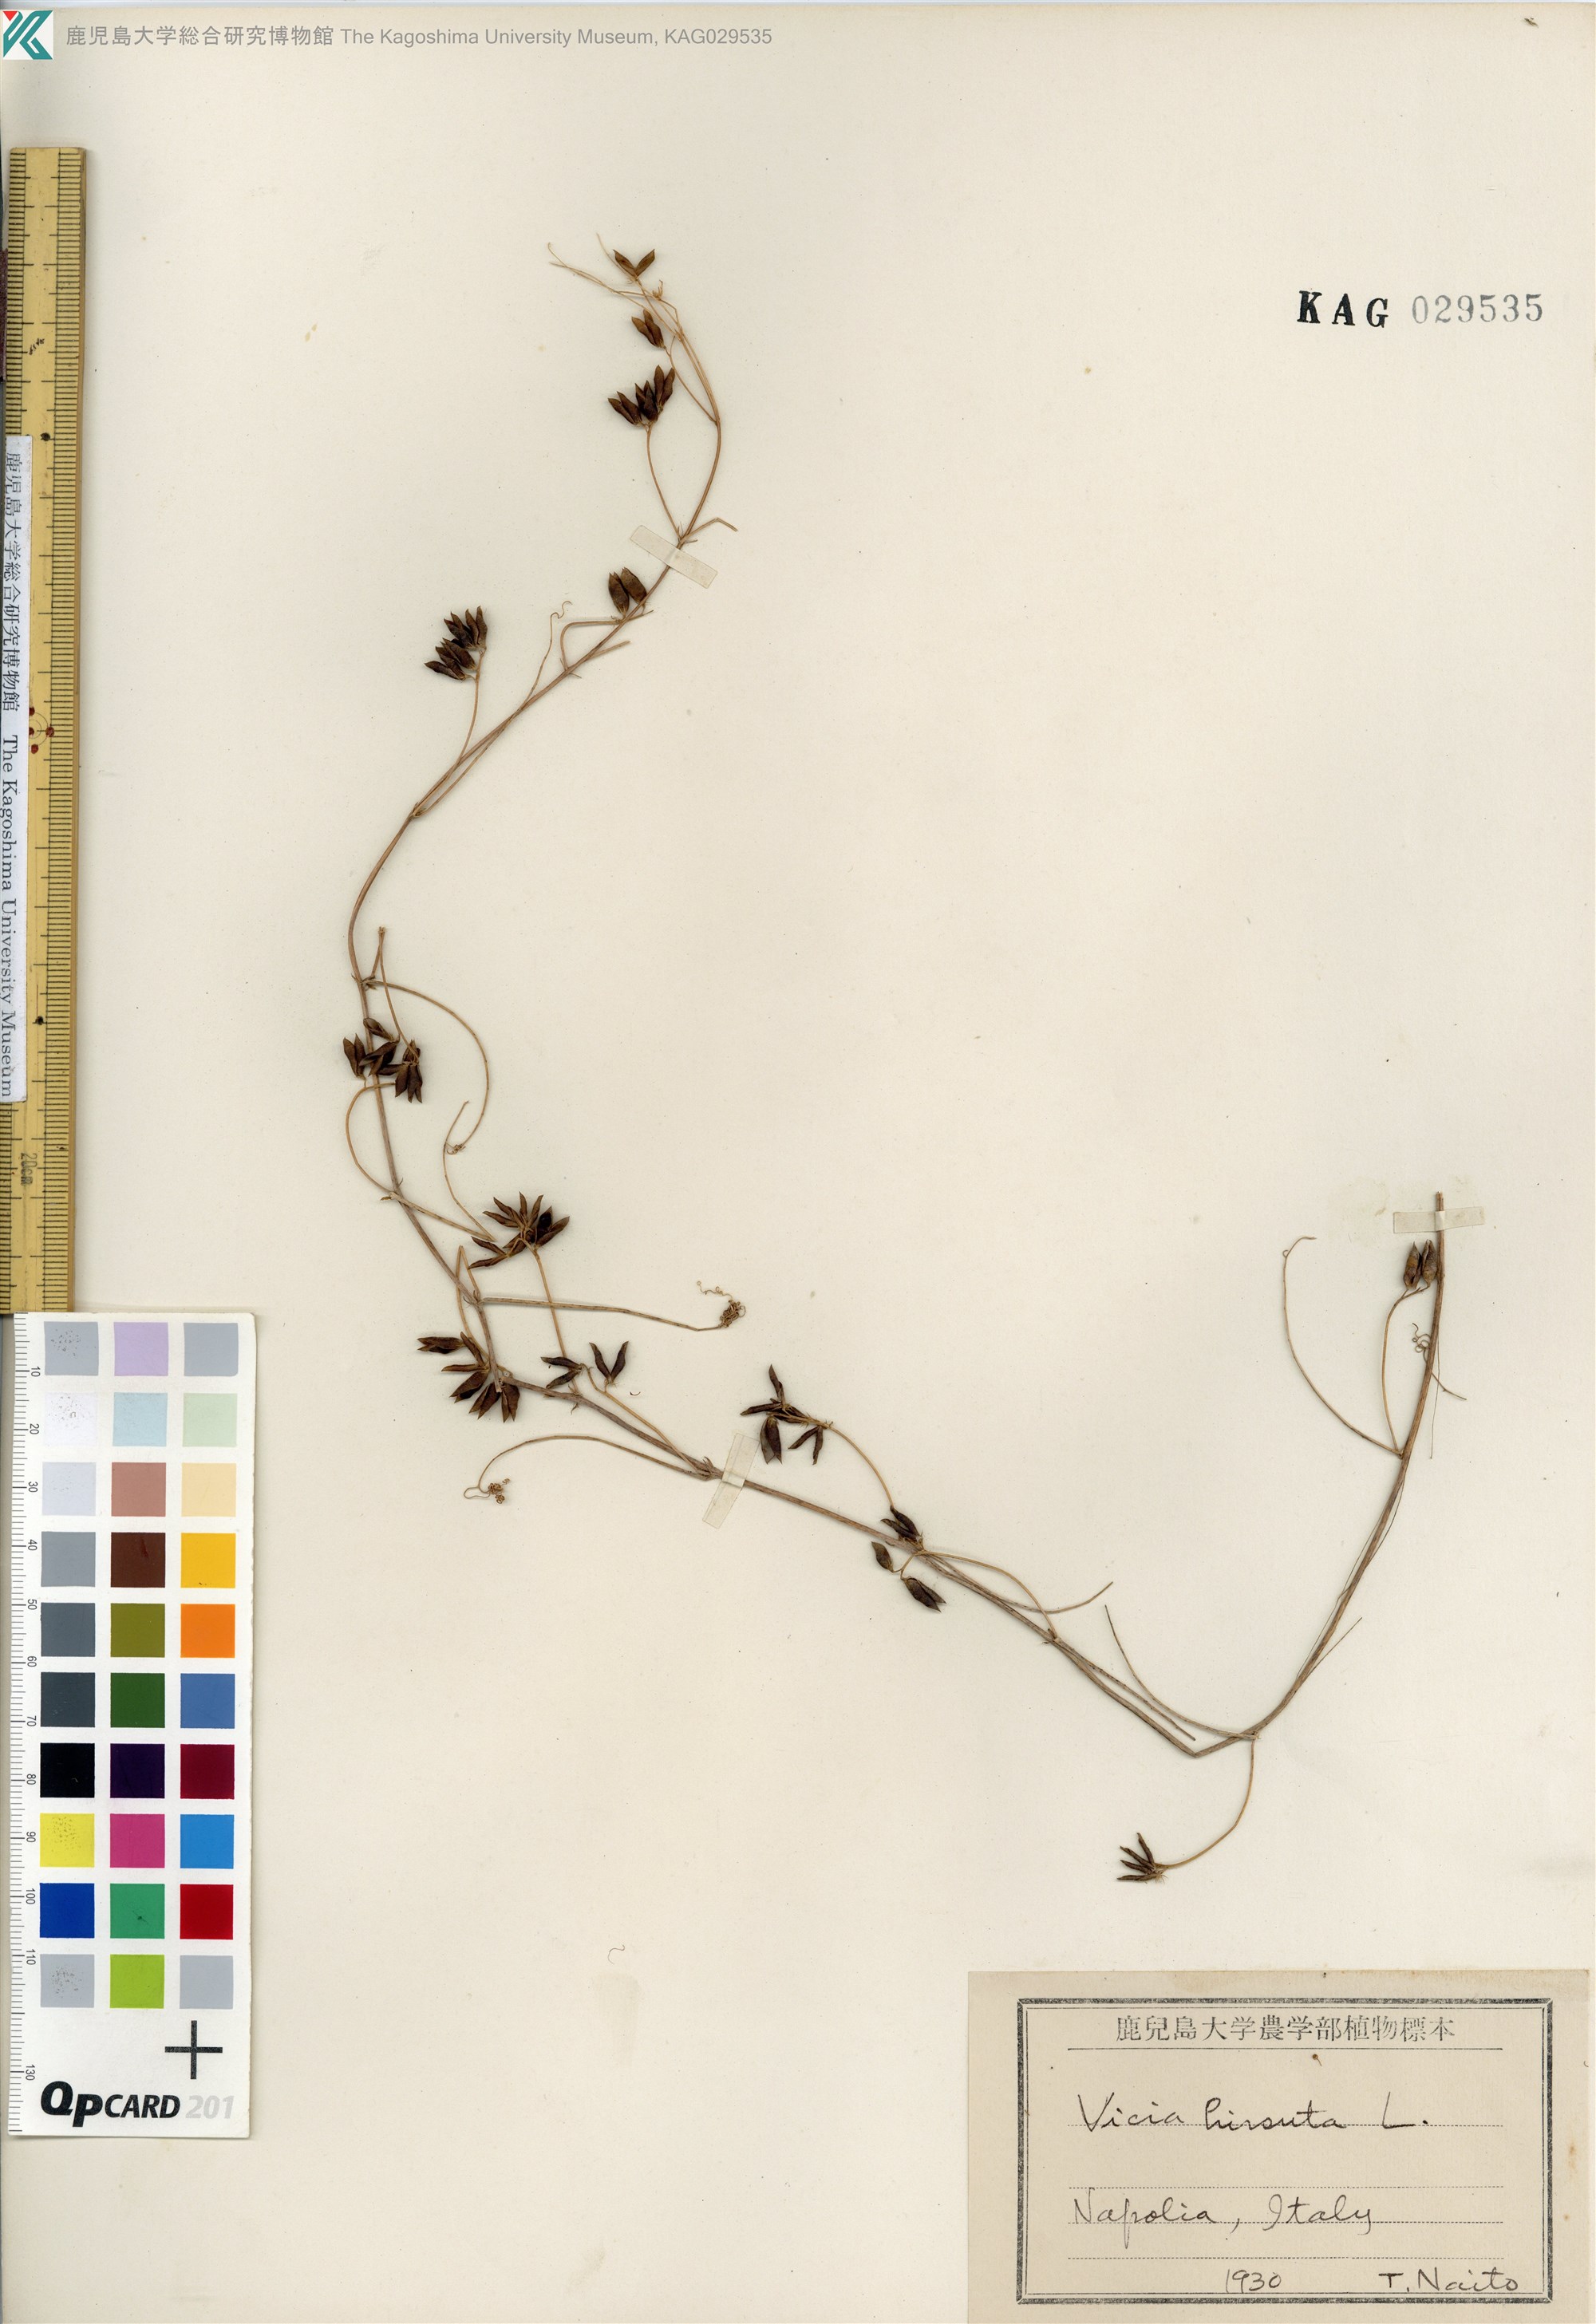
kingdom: Plantae
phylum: Tracheophyta
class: Magnoliopsida
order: Fabales
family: Fabaceae
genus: Vicia
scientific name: Vicia hirsuta
